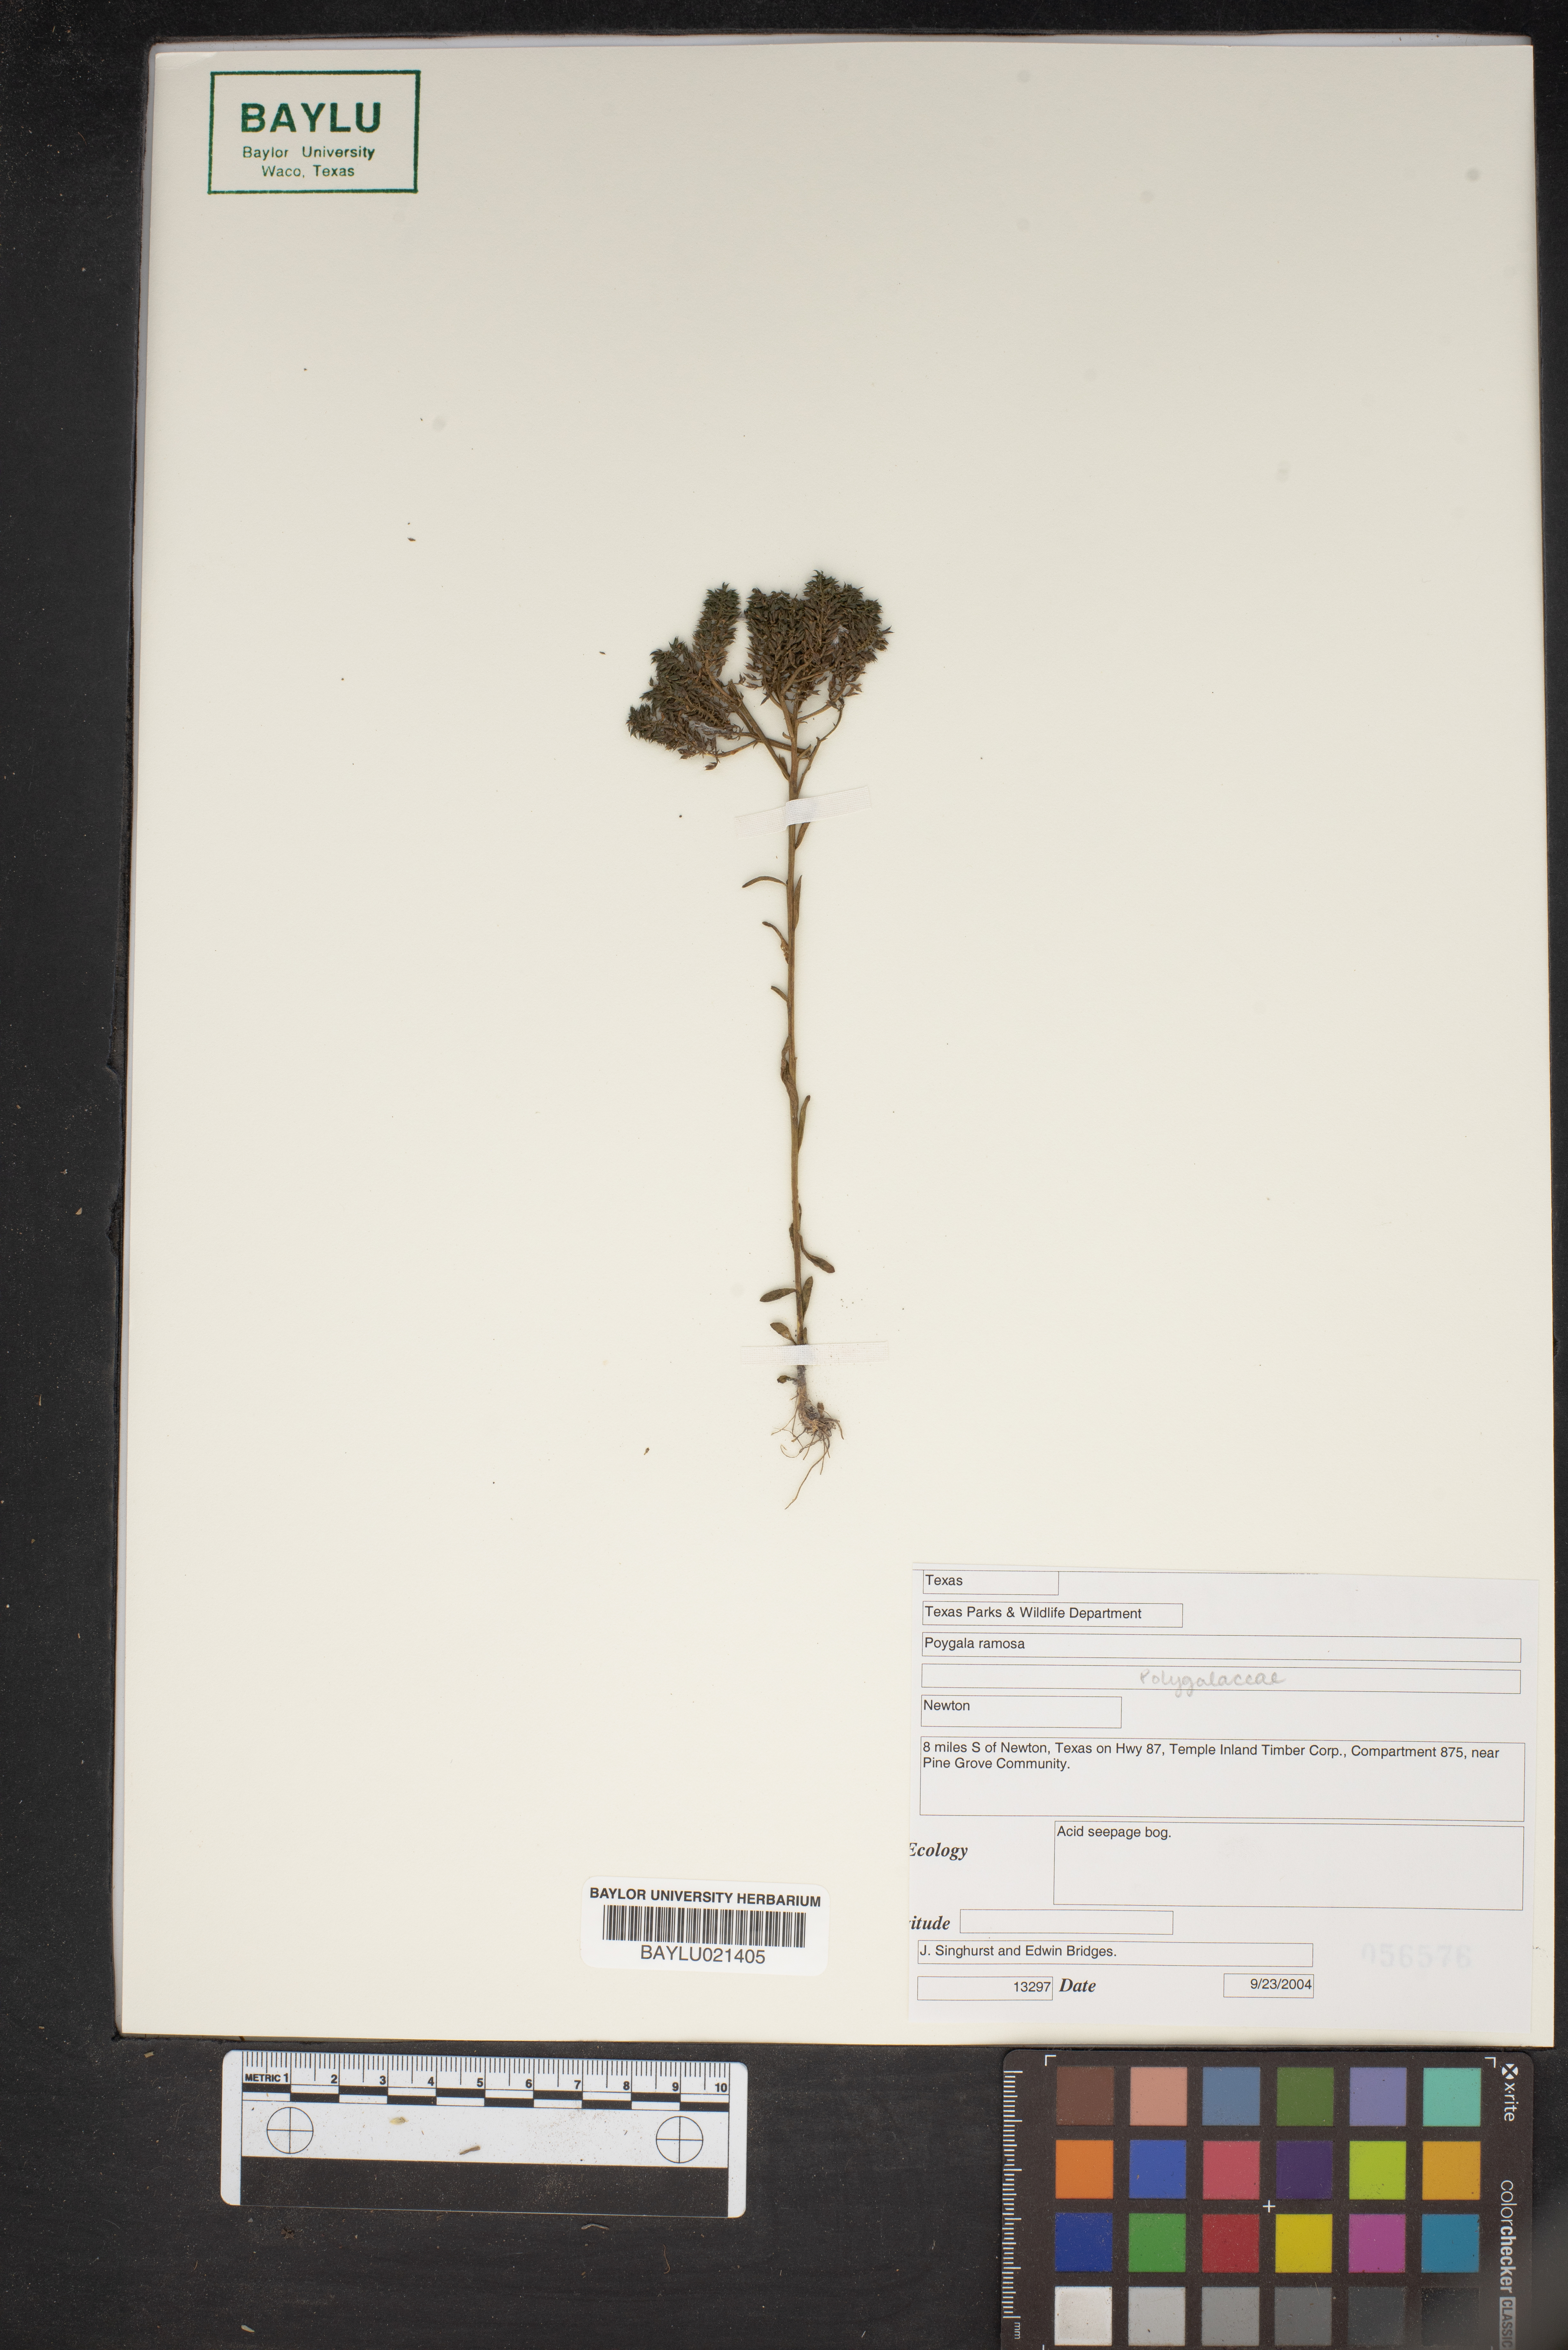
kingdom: Plantae
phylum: Tracheophyta
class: Magnoliopsida
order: Fabales
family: Polygalaceae
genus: Polygala
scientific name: Polygala ramosa
